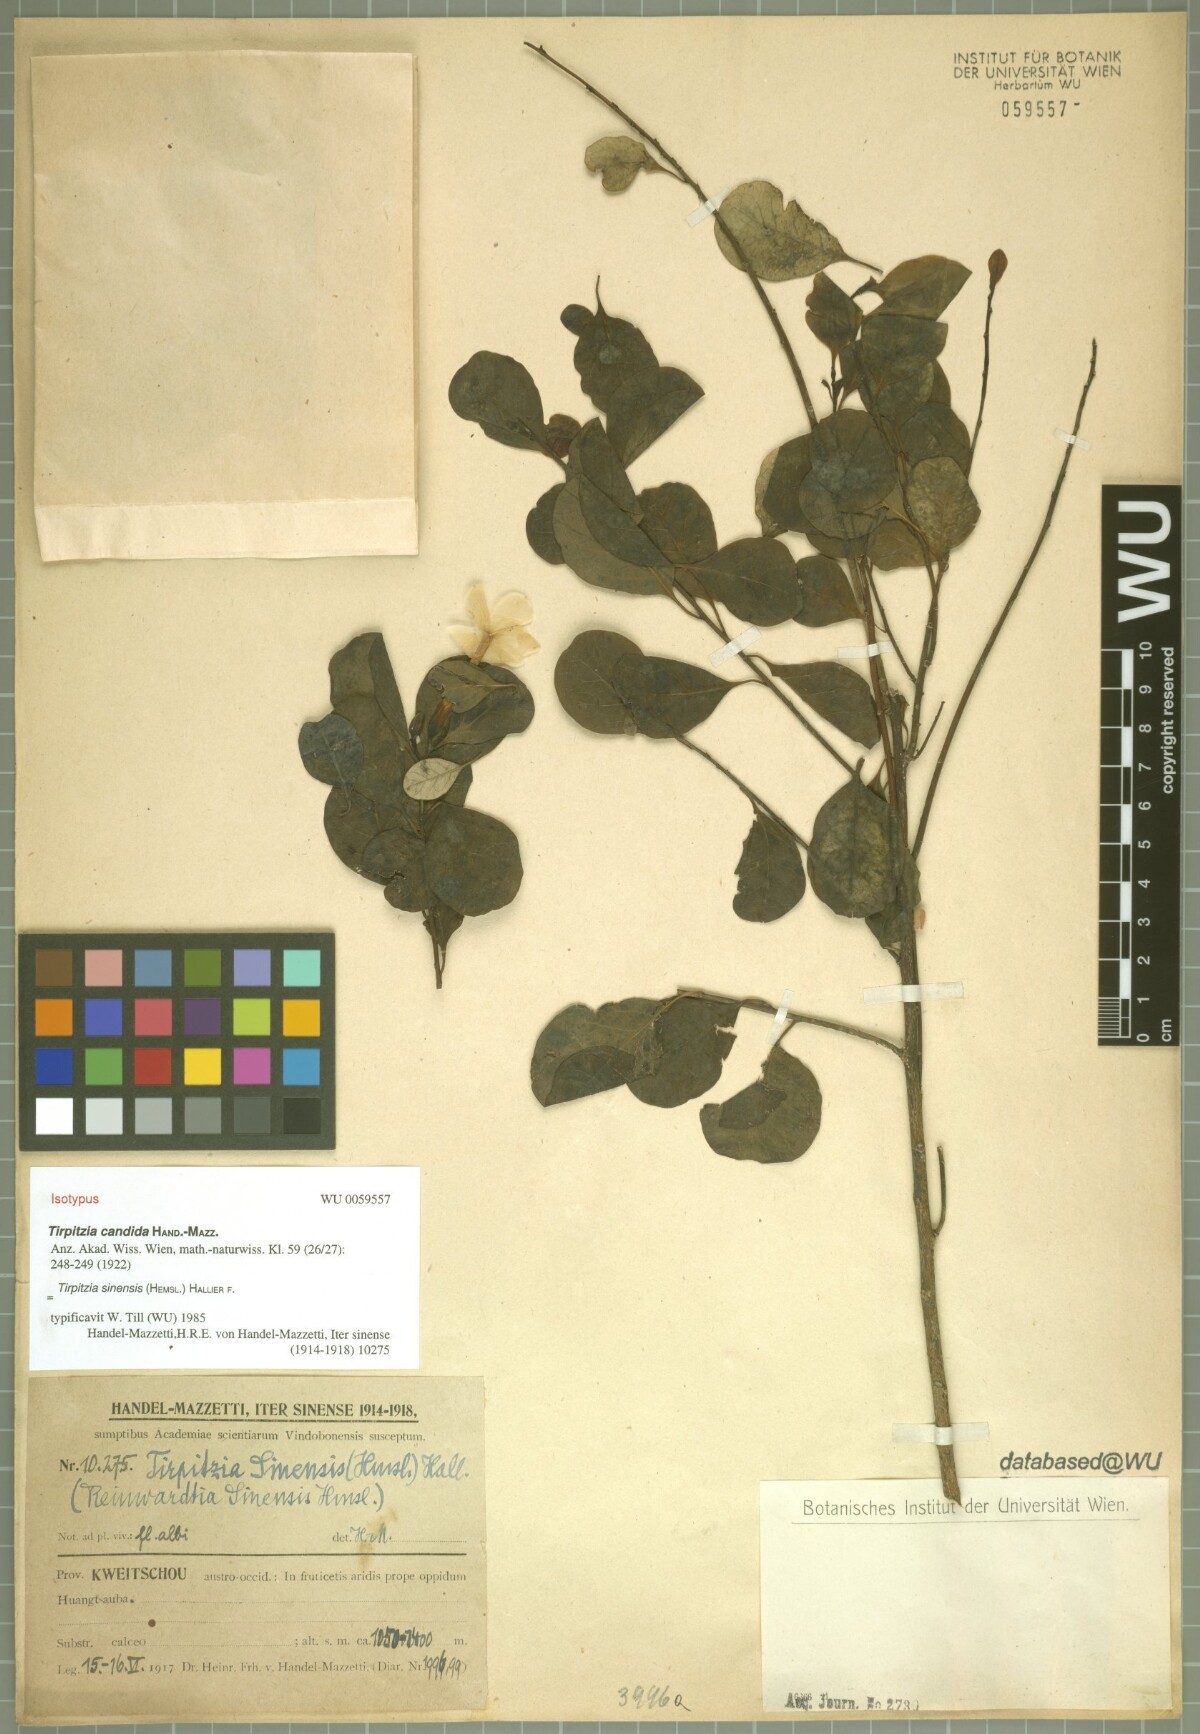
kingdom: Plantae
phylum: Tracheophyta
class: Magnoliopsida
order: Malpighiales
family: Linaceae
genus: Tirpitzia
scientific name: Tirpitzia sinensis
